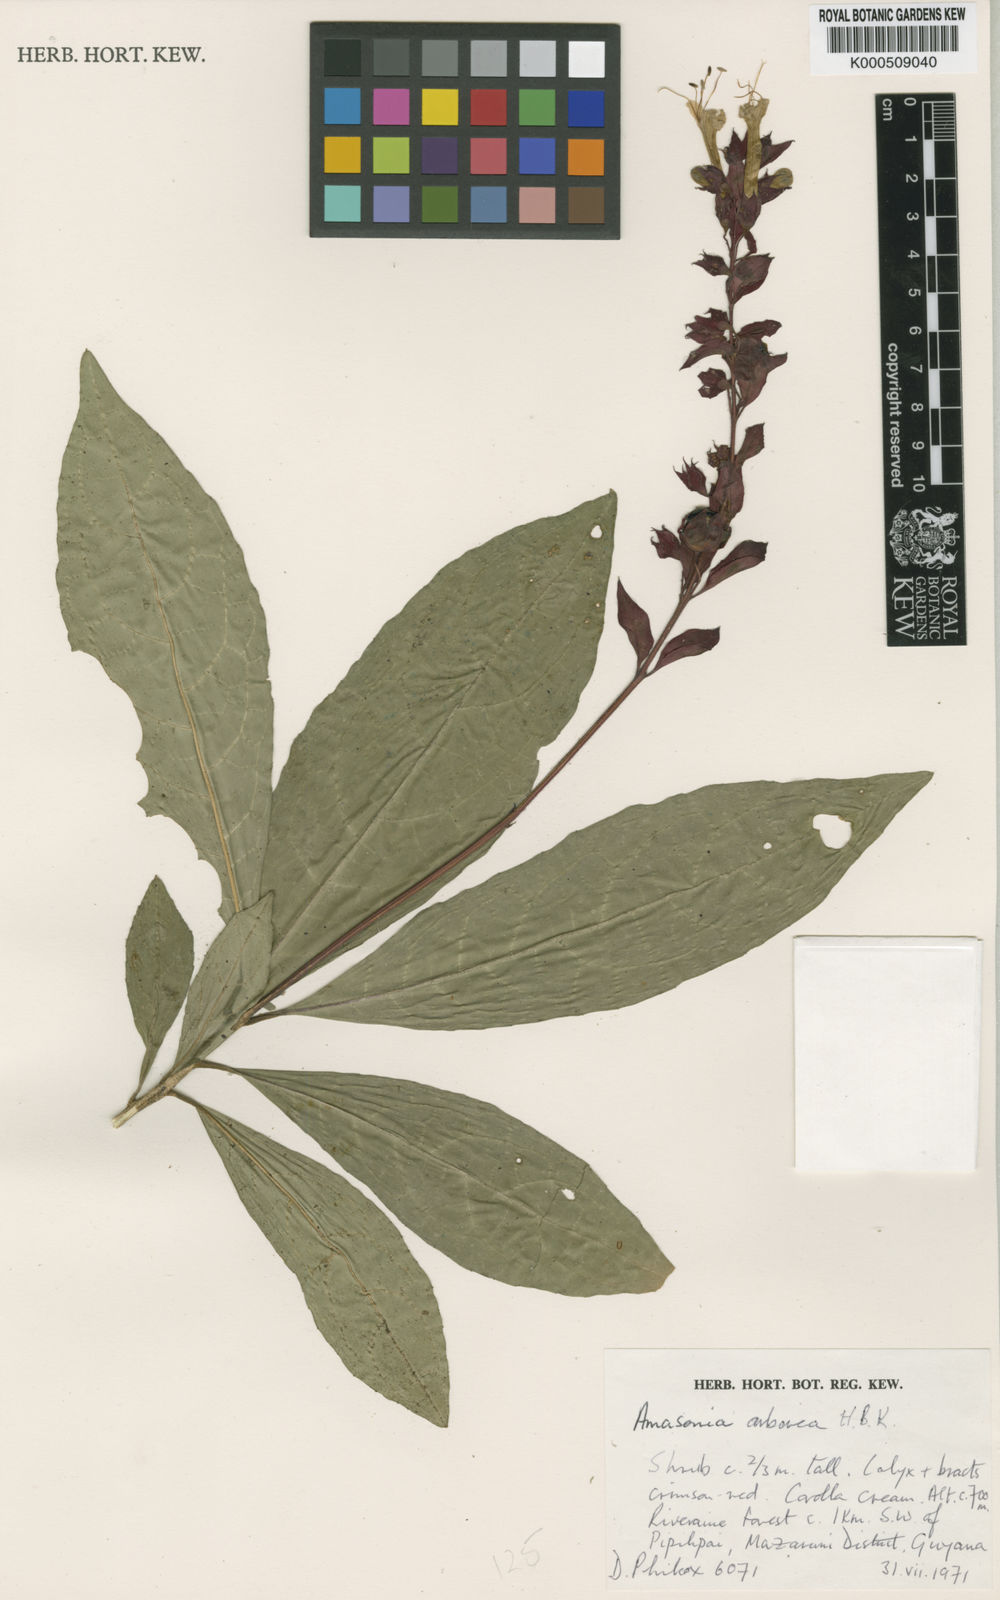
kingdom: Plantae
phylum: Tracheophyta
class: Magnoliopsida
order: Lamiales
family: Lamiaceae
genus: Amasonia
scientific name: Amasonia campestris
